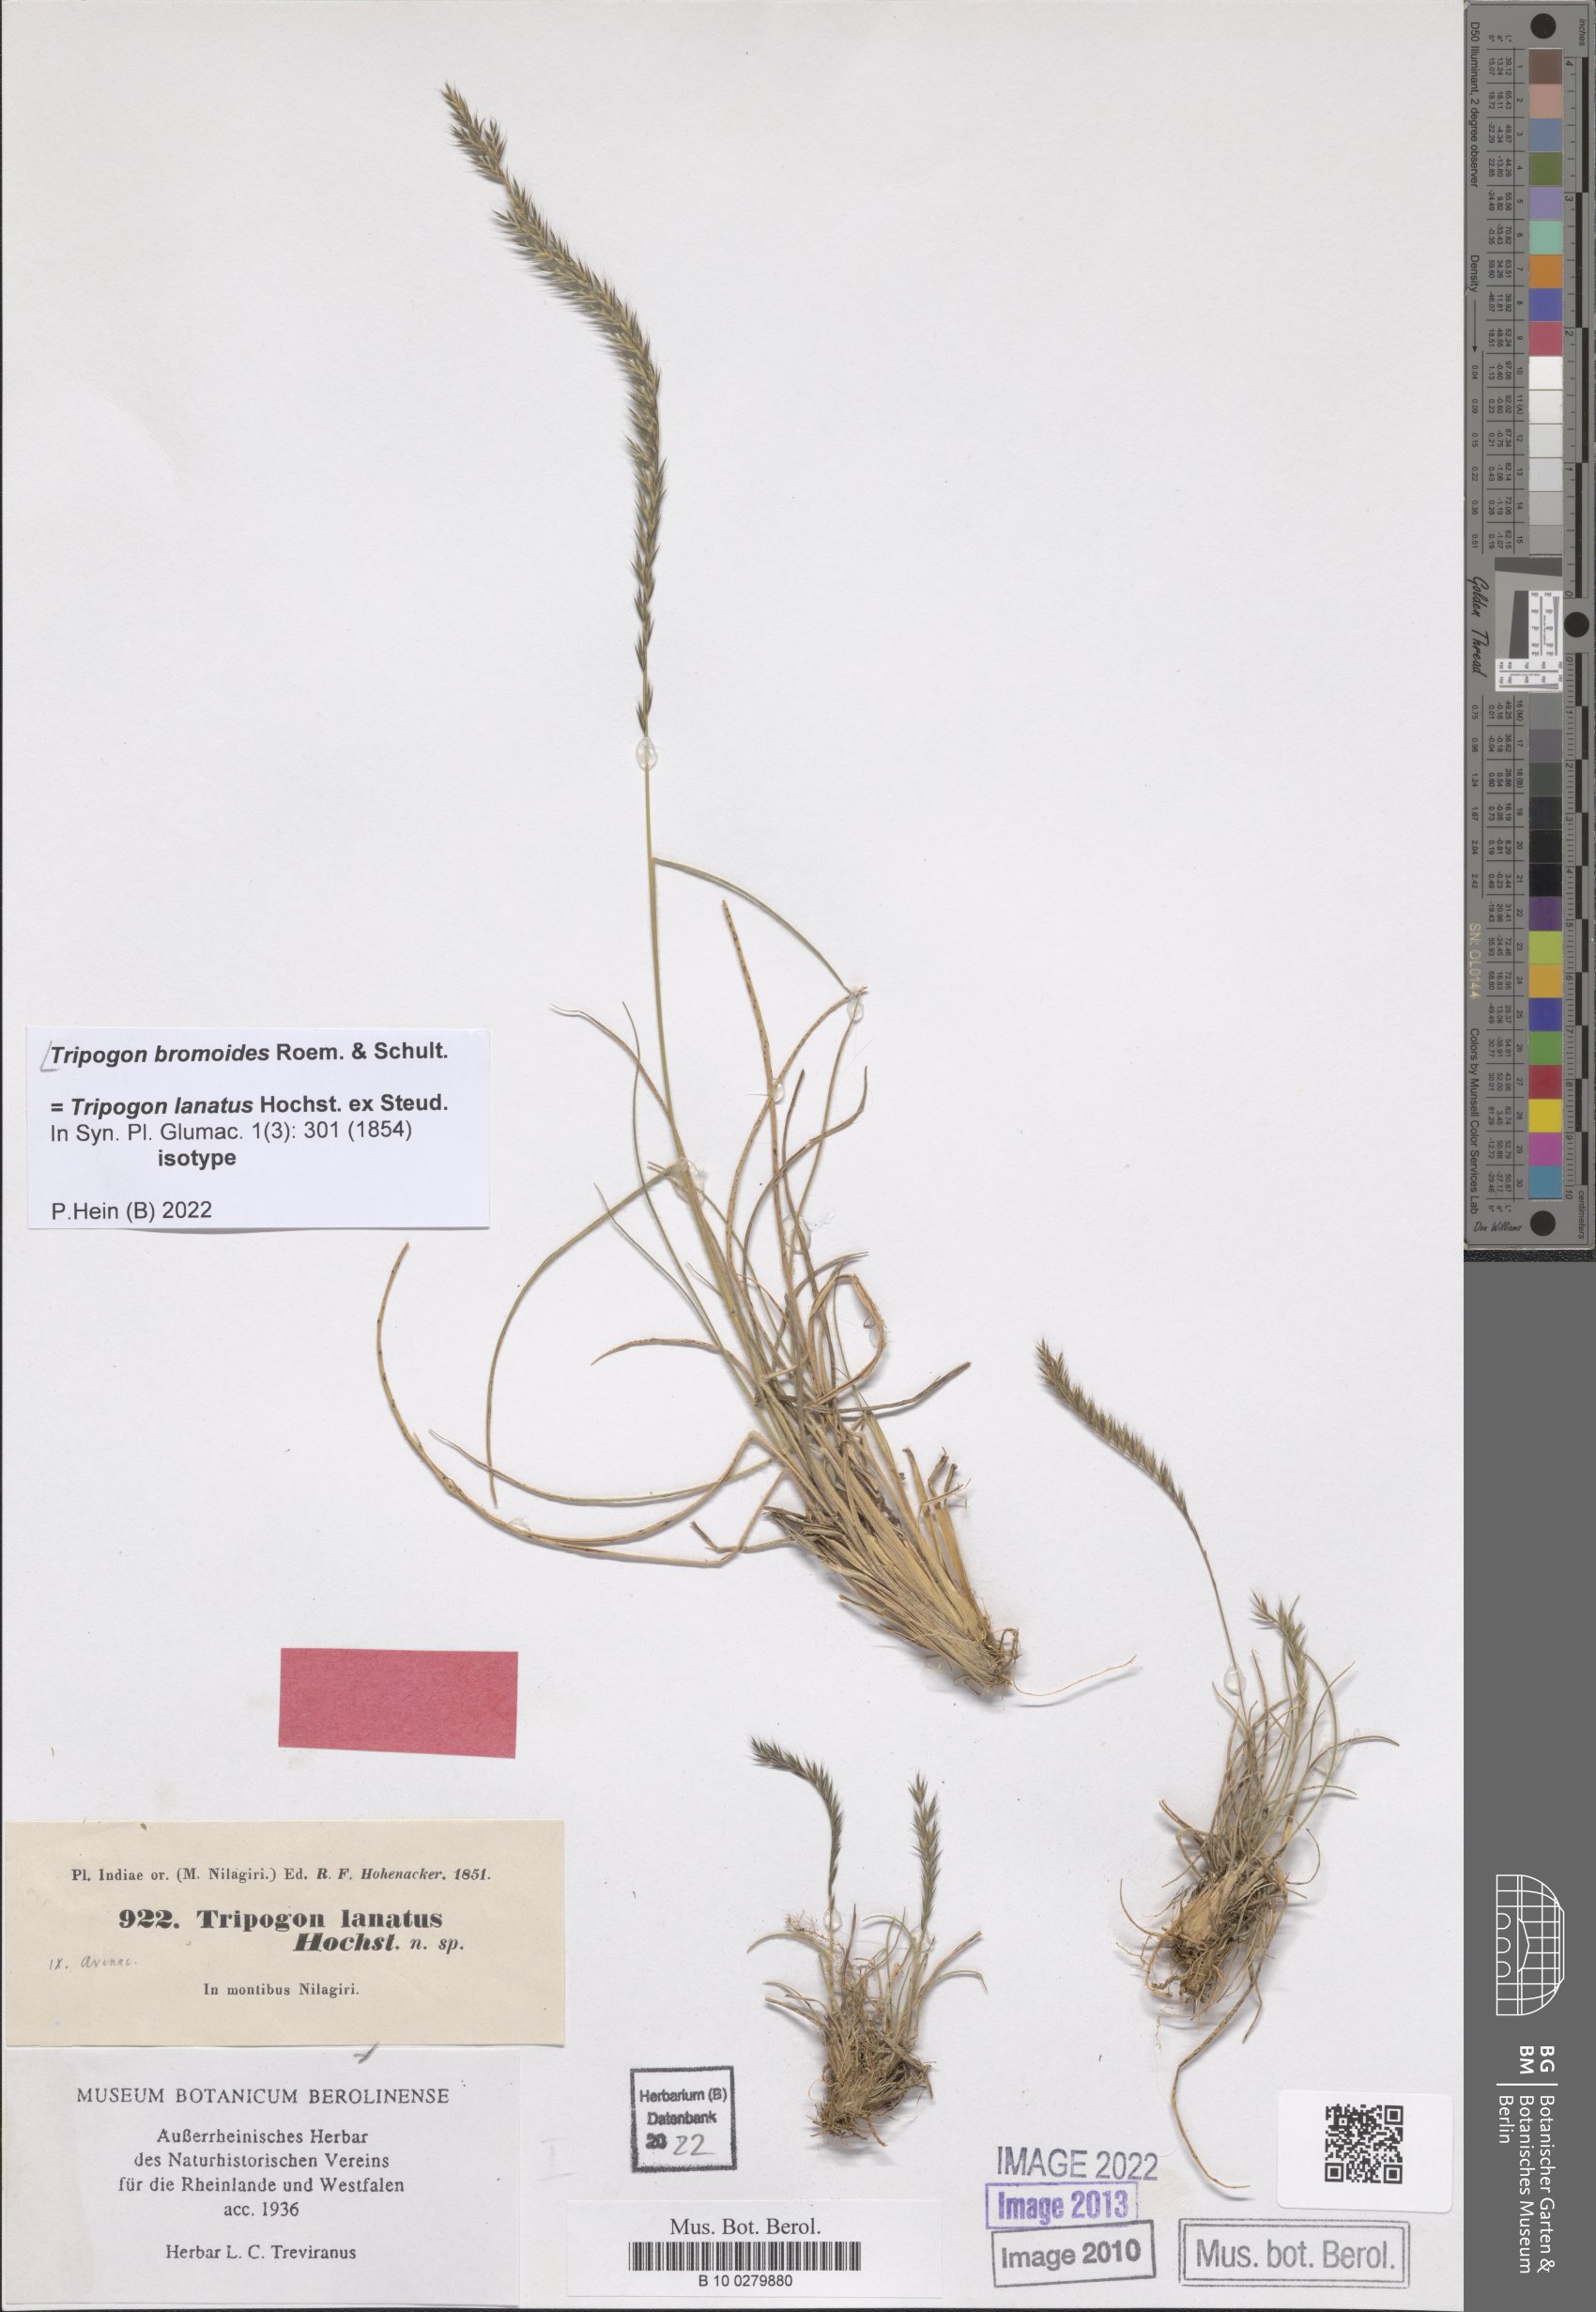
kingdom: Plantae
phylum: Tracheophyta
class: Liliopsida
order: Poales
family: Poaceae
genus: Tripogon
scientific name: Tripogon bromoides
